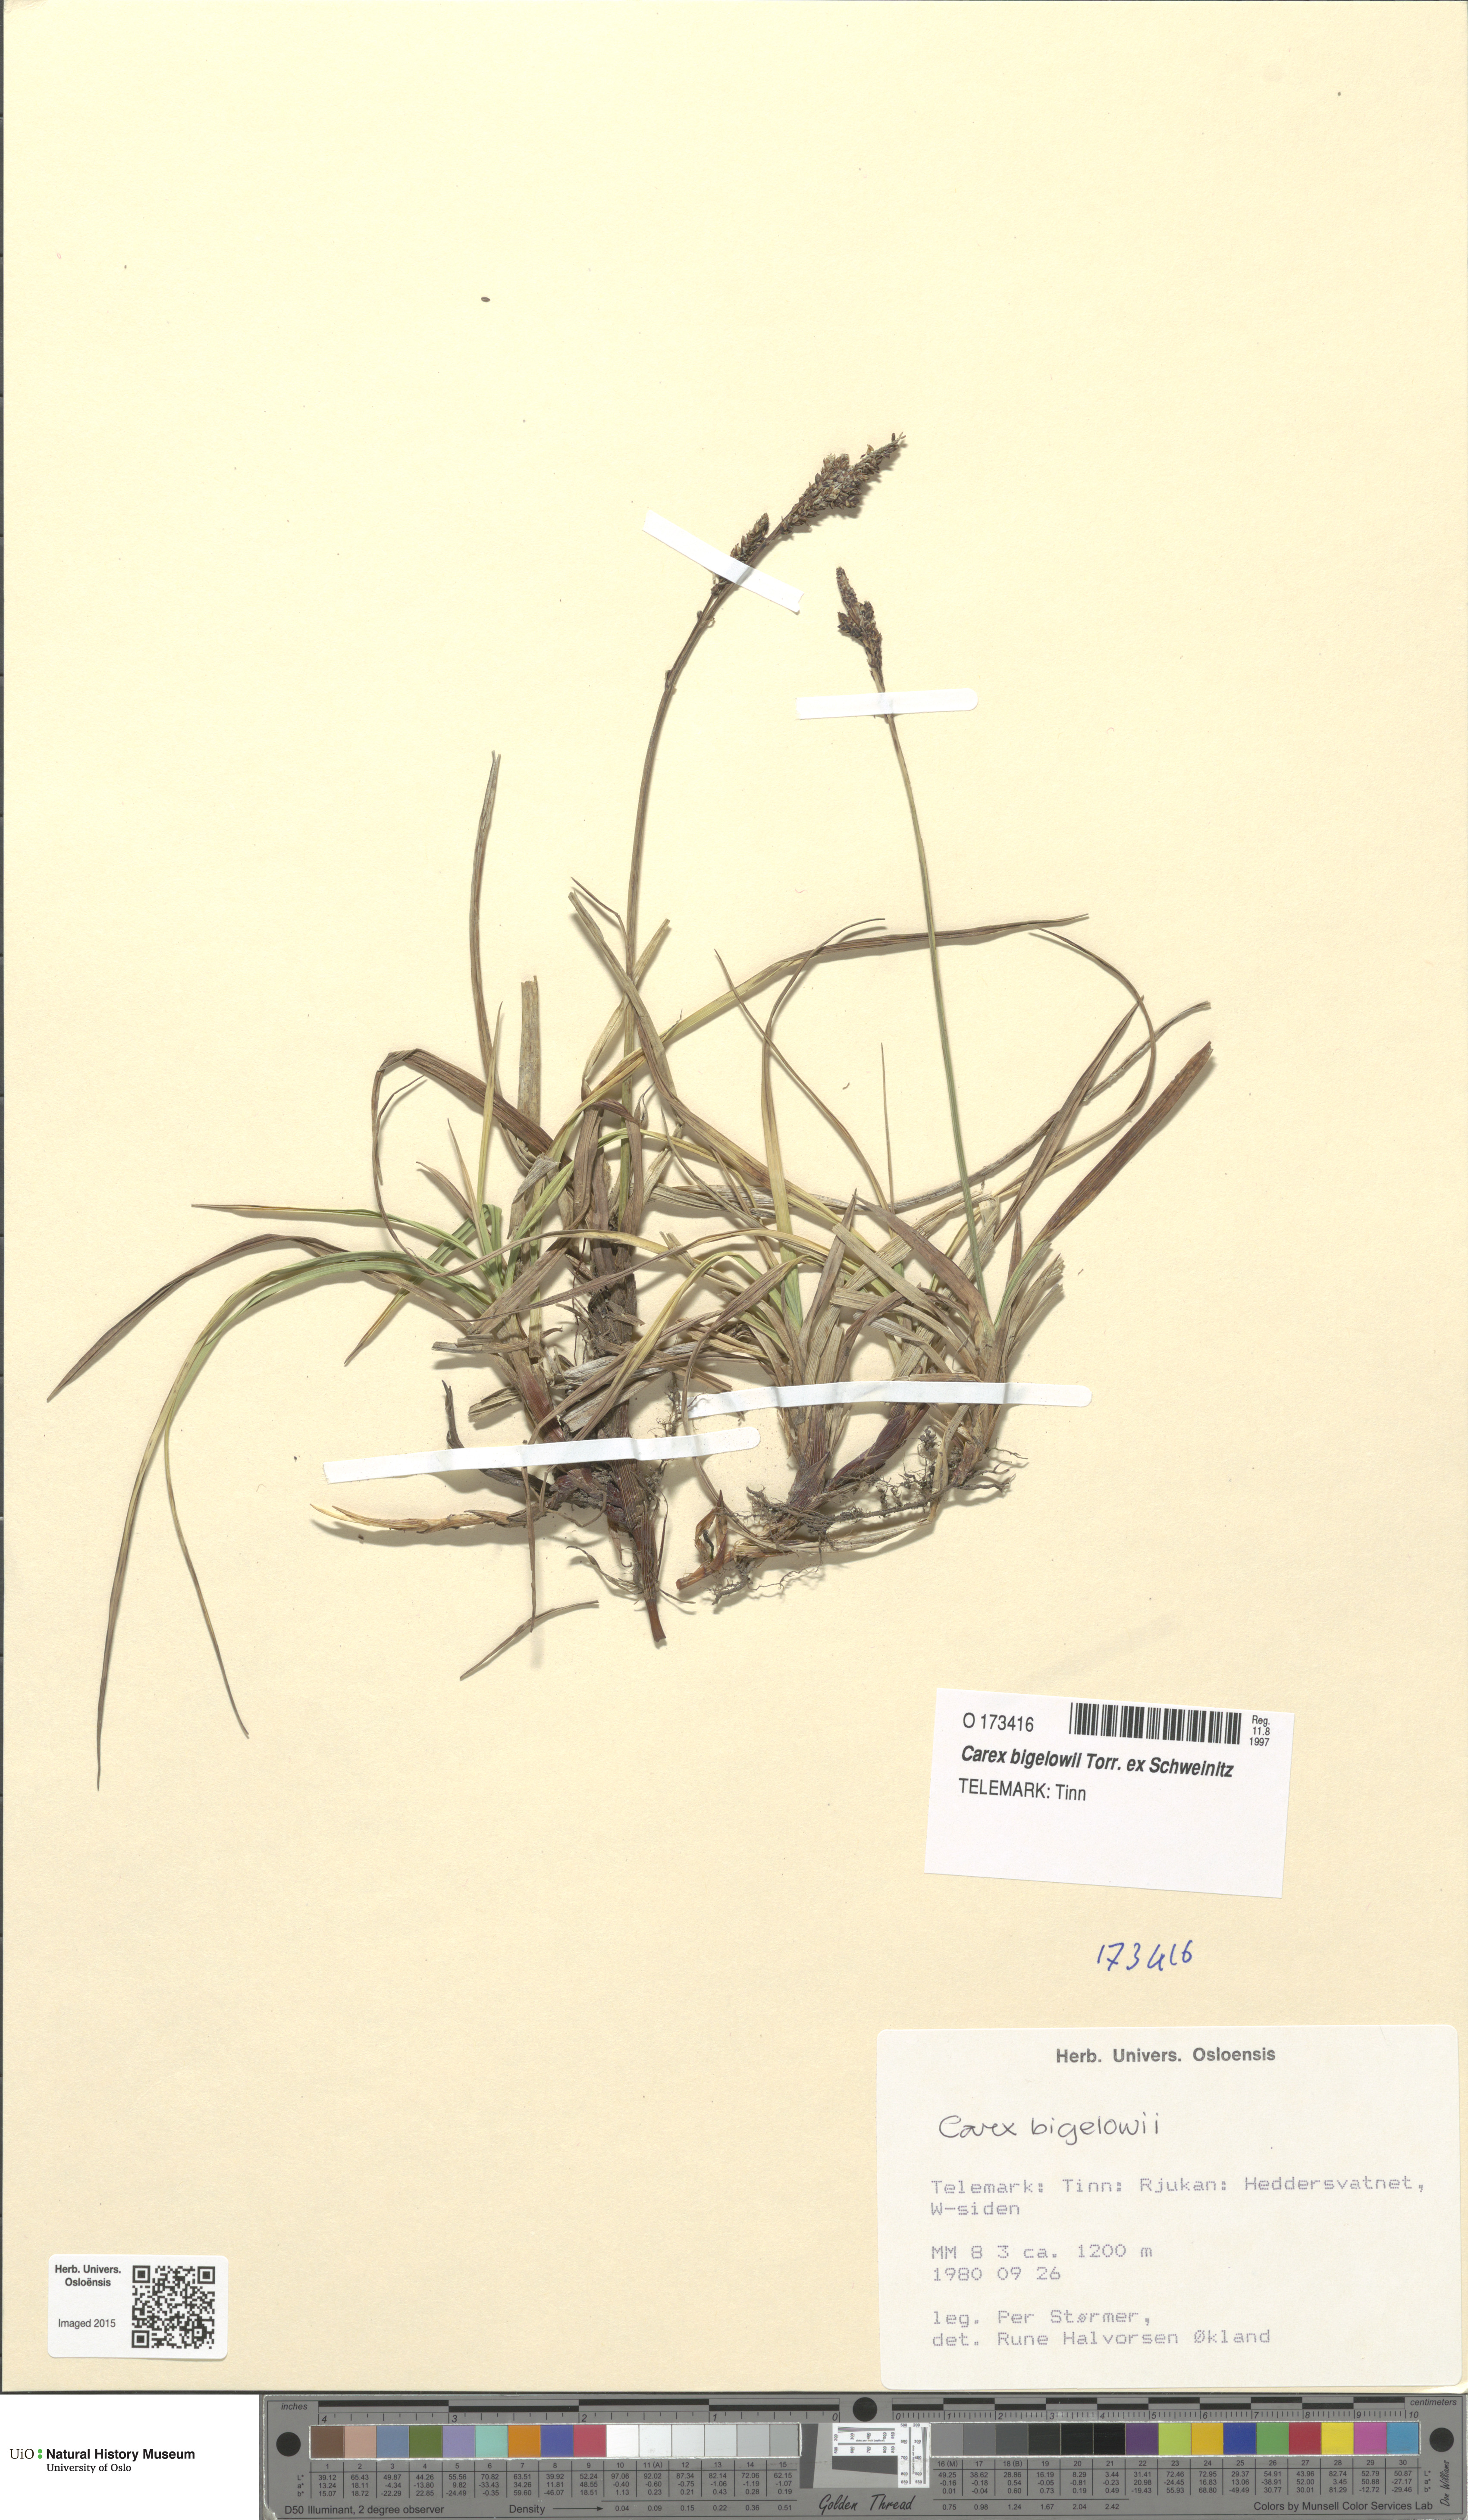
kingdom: Plantae
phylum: Tracheophyta
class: Liliopsida
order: Poales
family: Cyperaceae
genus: Carex
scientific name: Carex bigelowii
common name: Stiff sedge
